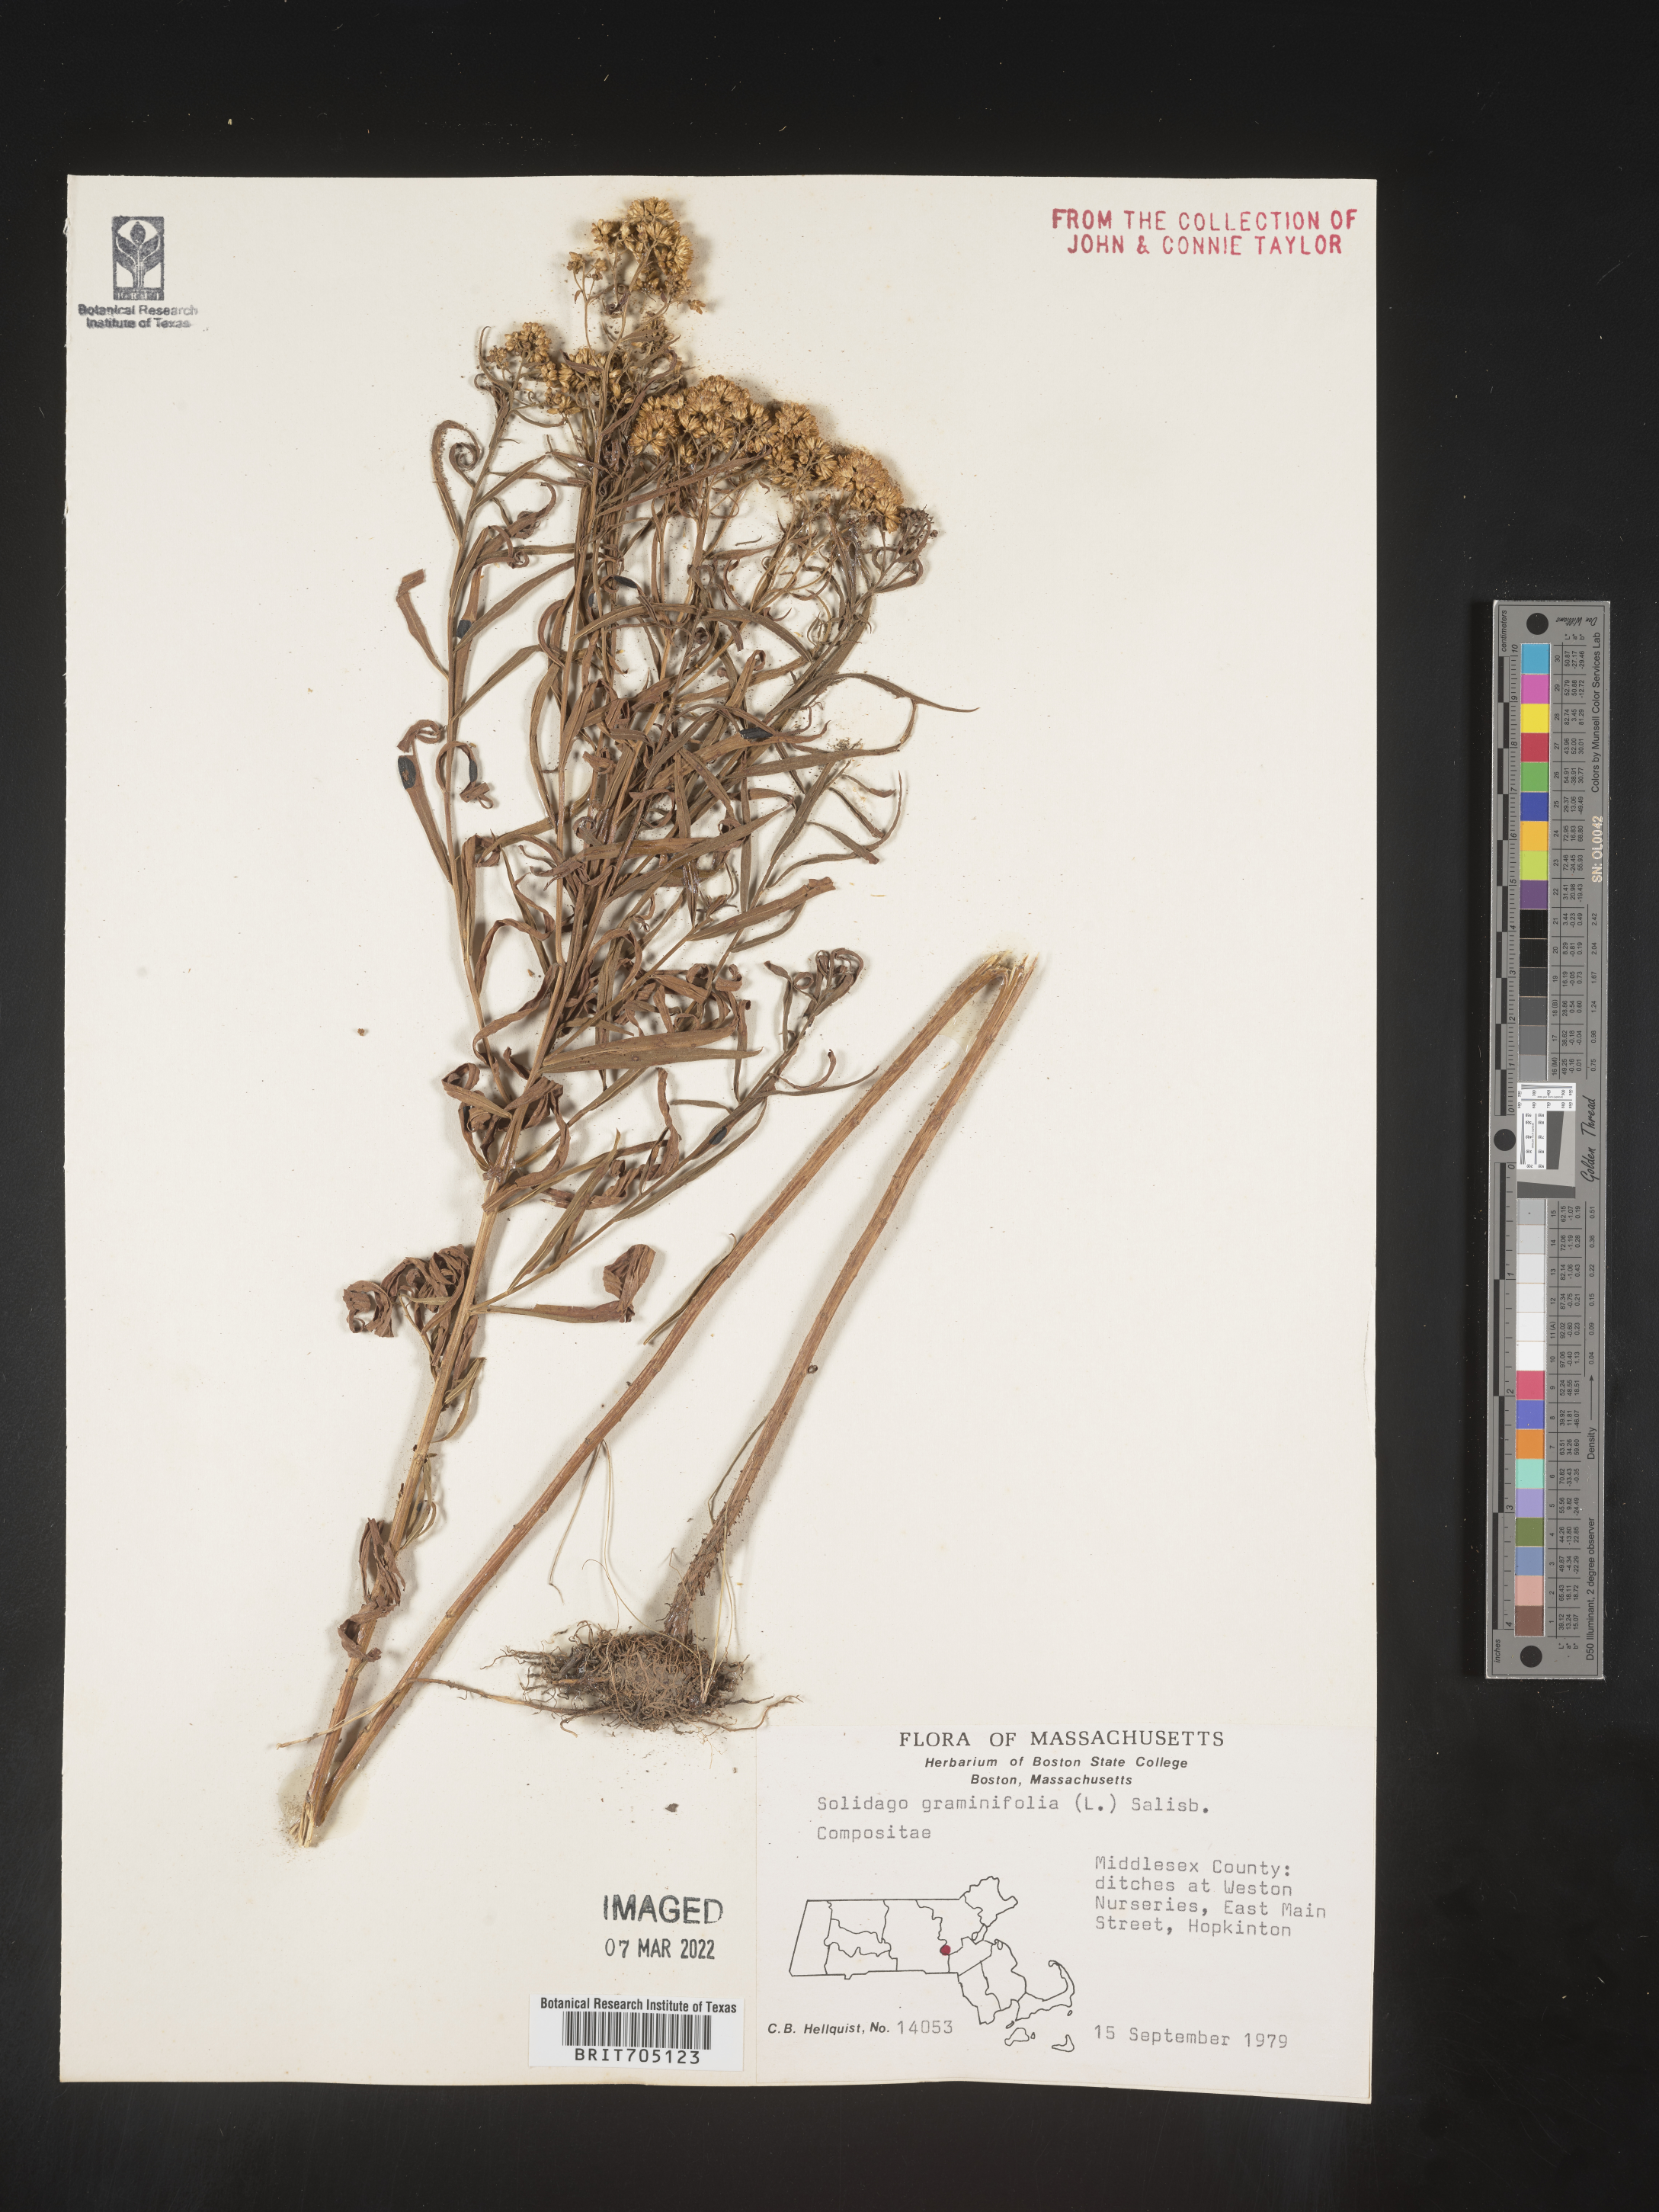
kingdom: Plantae
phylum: Tracheophyta
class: Magnoliopsida
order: Asterales
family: Asteraceae
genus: Euthamia
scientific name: Euthamia graminifolia
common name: Common goldentop
